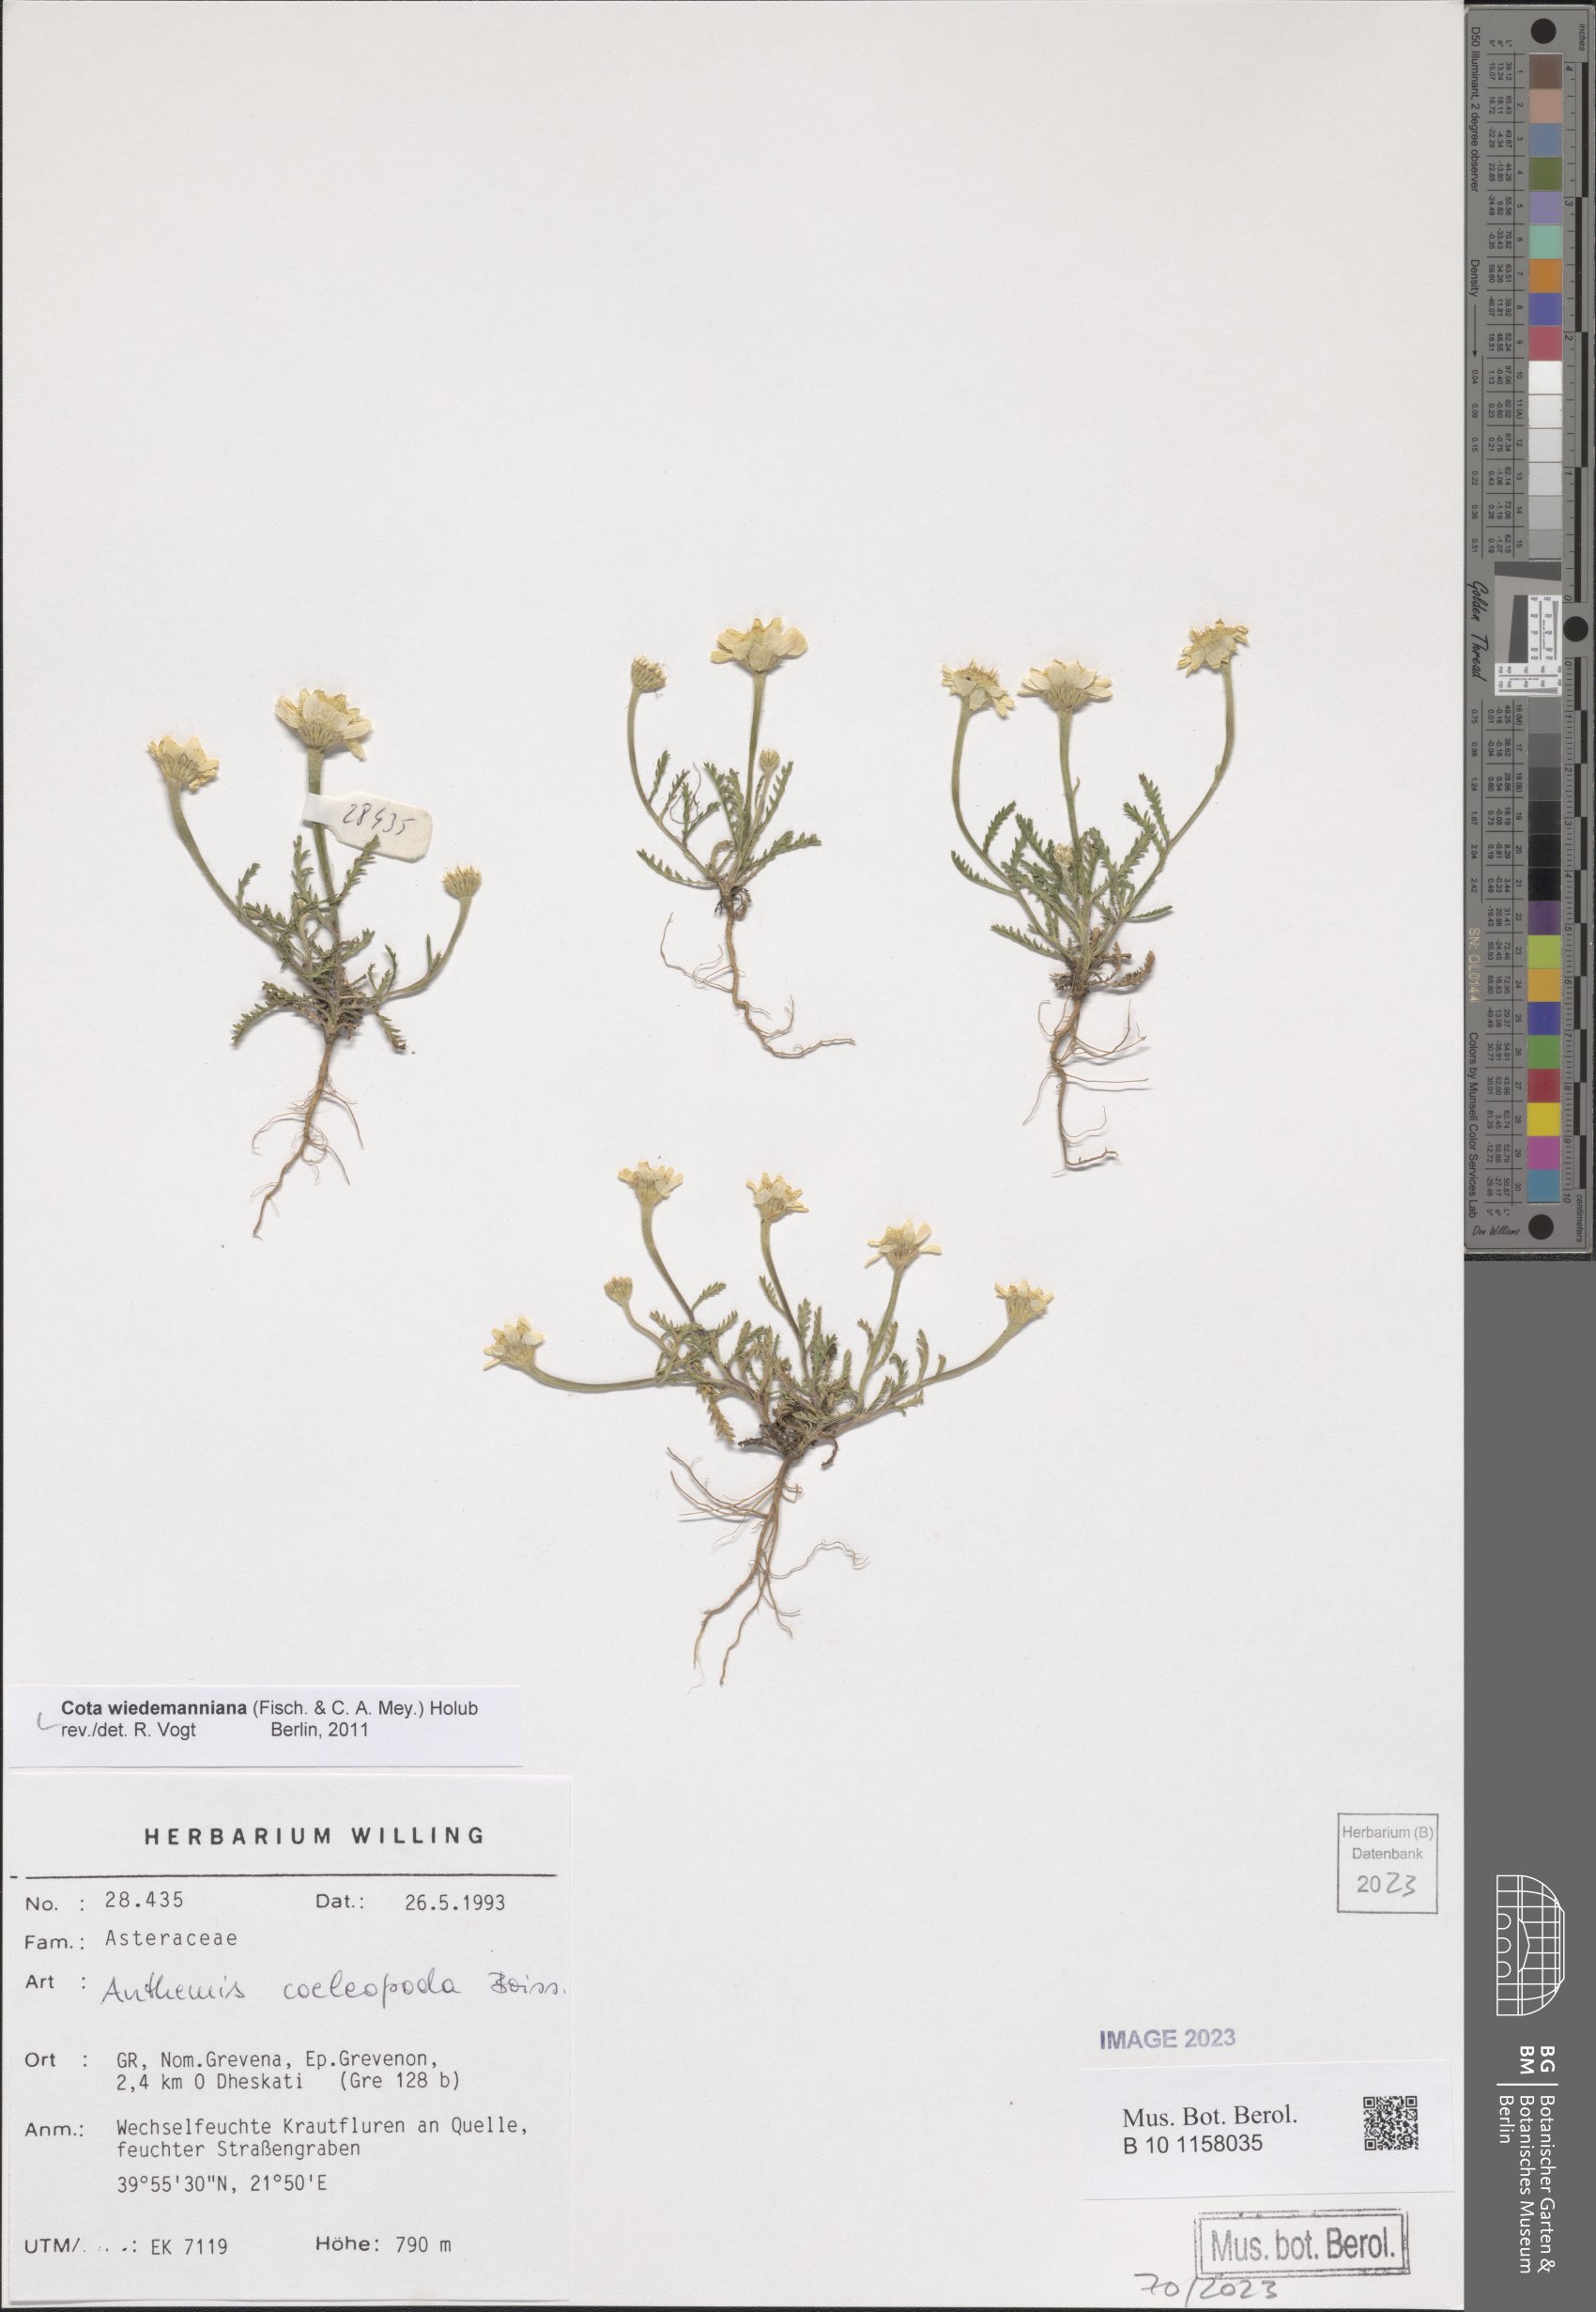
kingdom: Plantae
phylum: Tracheophyta
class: Magnoliopsida
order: Asterales
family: Asteraceae
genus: Cota
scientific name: Cota wiedemanniana
